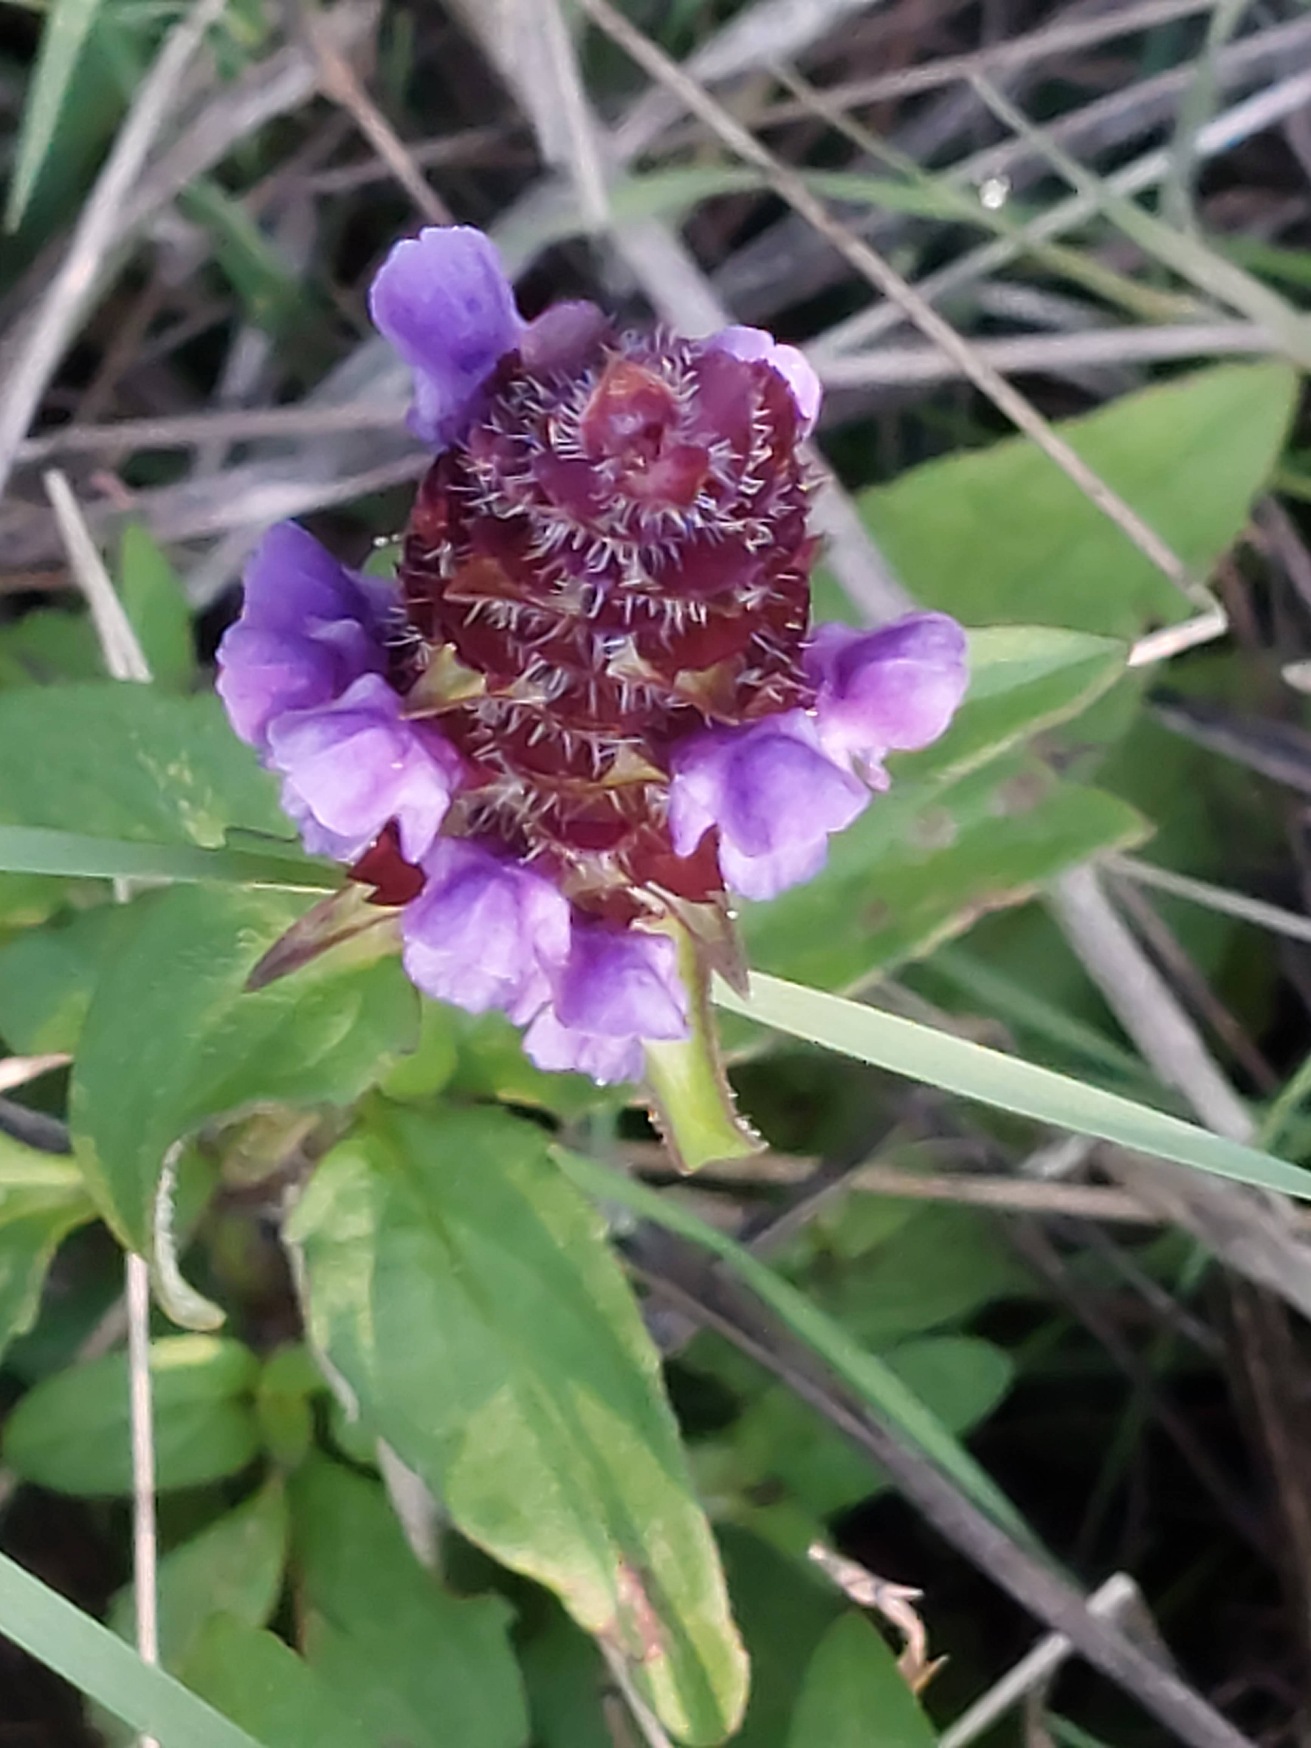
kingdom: Plantae
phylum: Tracheophyta
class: Magnoliopsida
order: Lamiales
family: Lamiaceae
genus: Prunella
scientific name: Prunella vulgaris
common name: Almindelig brunelle
